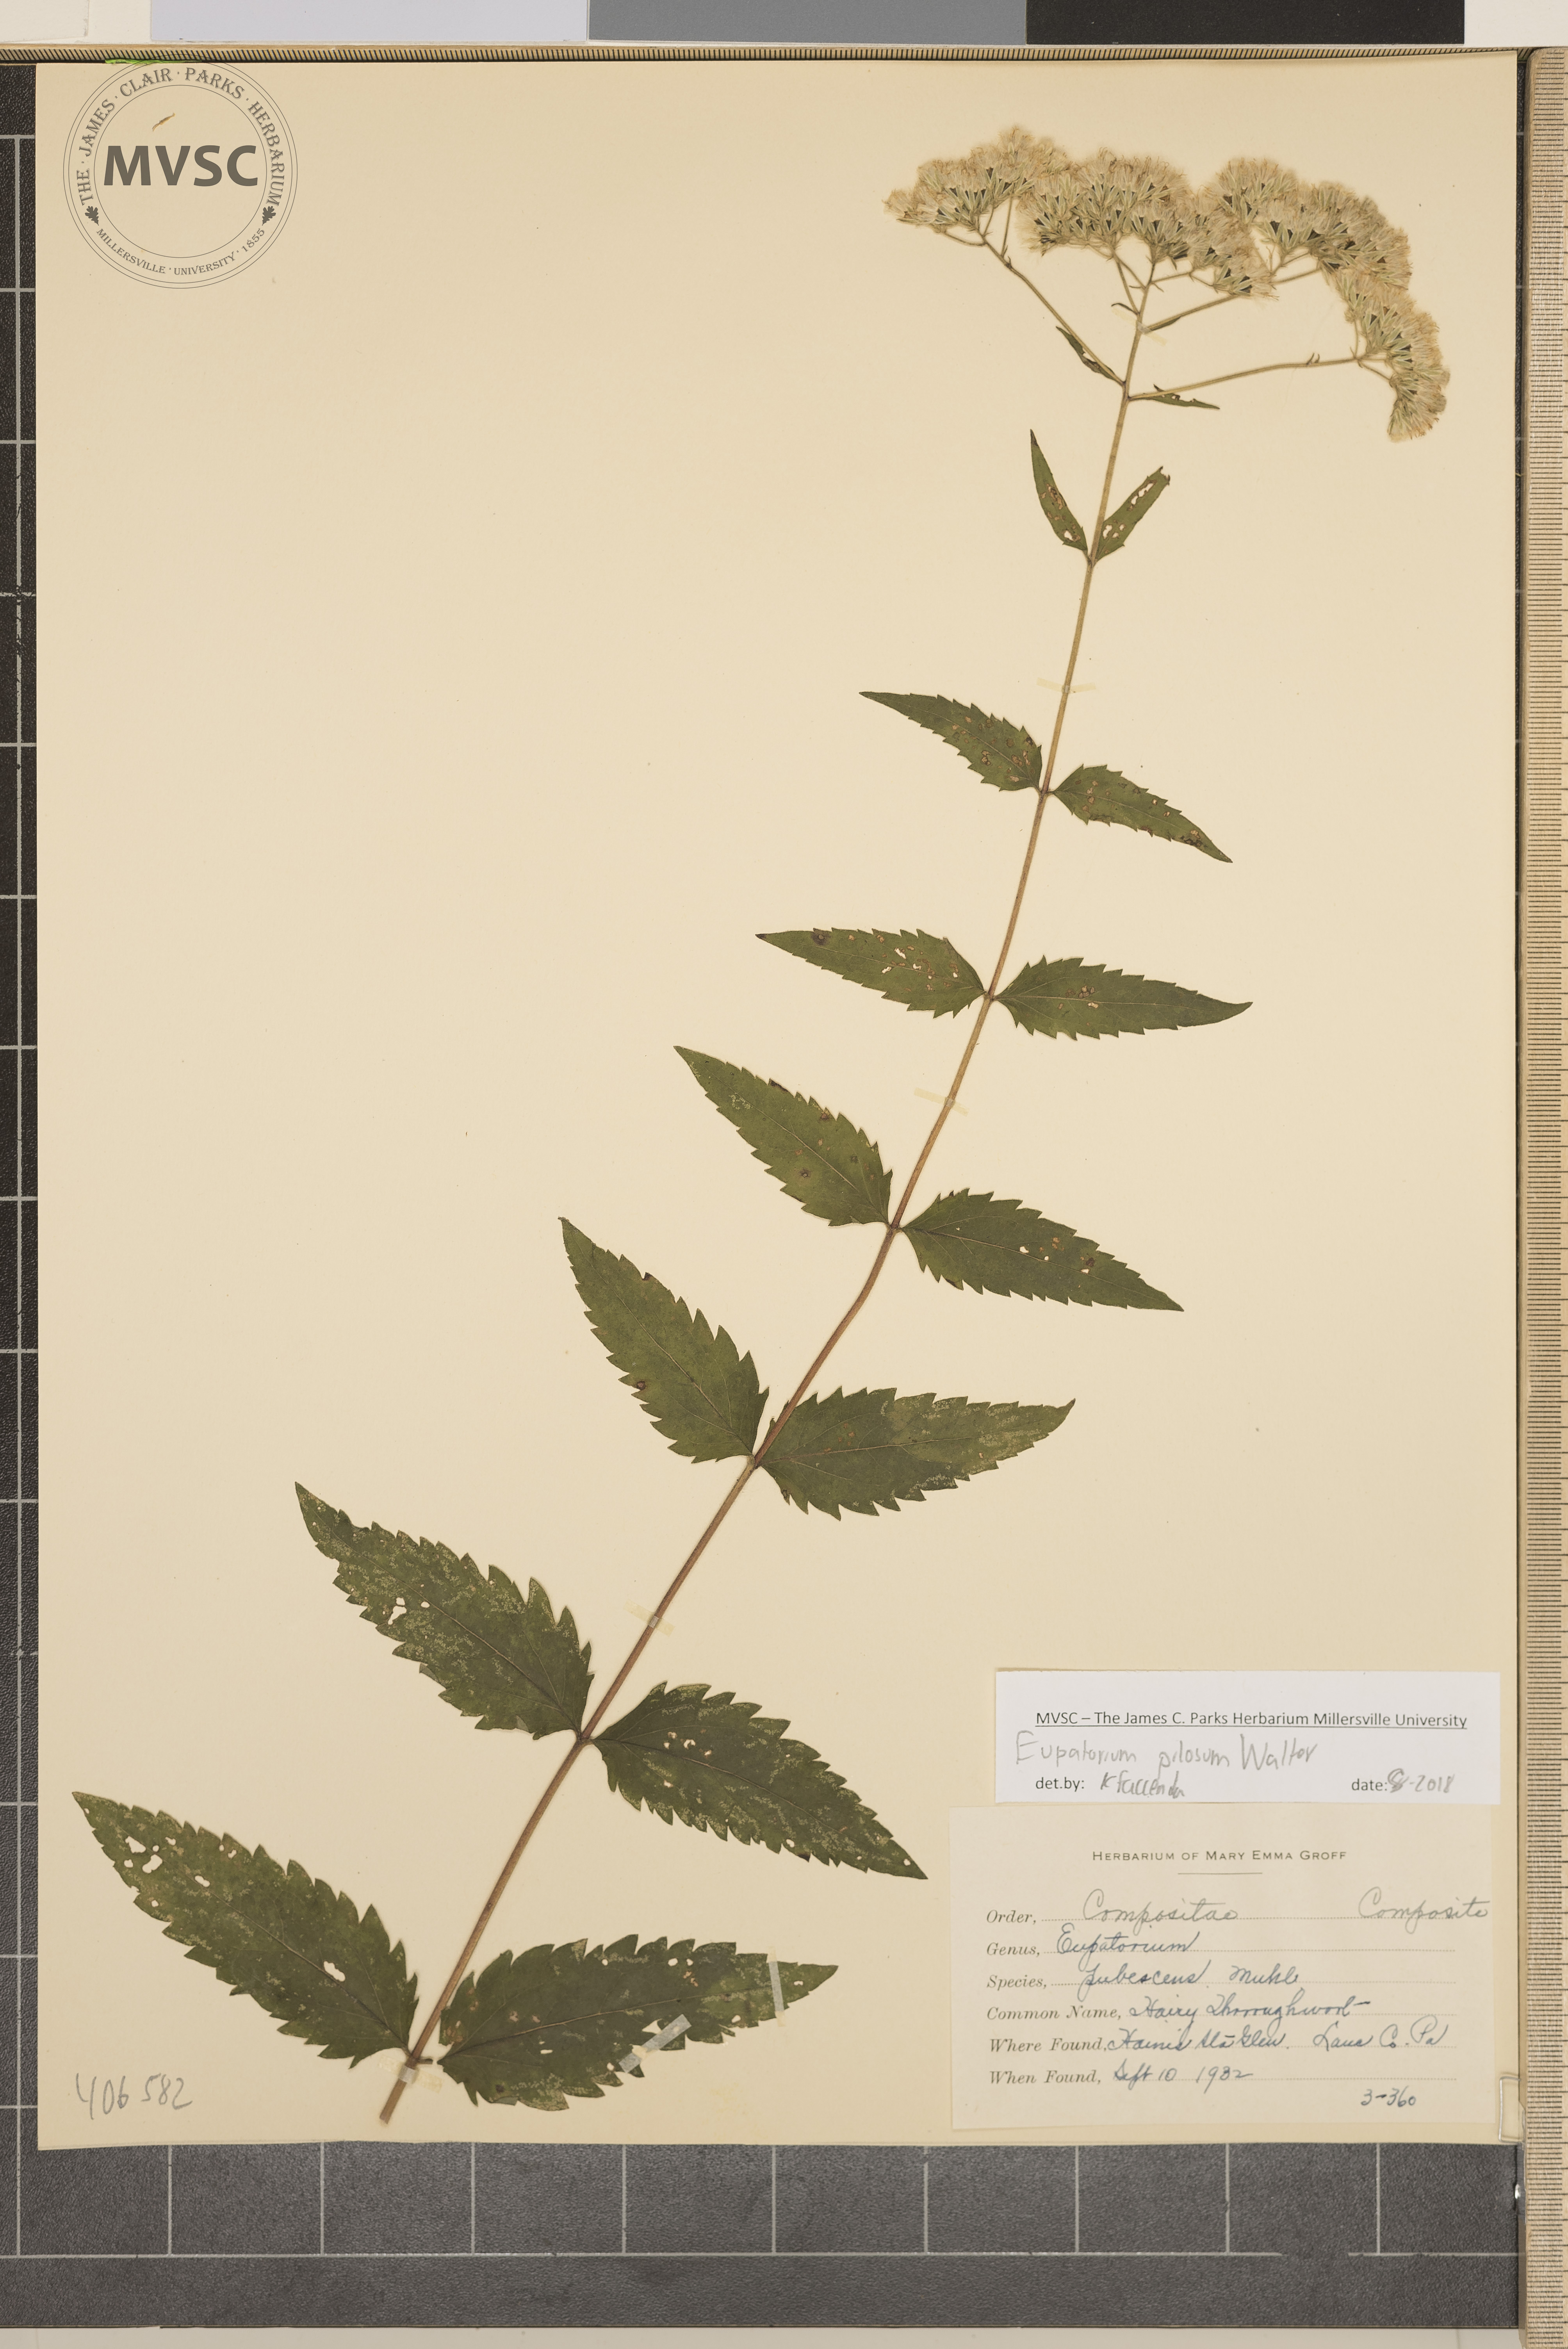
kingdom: Plantae
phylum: Tracheophyta
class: Magnoliopsida
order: Asterales
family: Asteraceae
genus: Eupatorium
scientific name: Eupatorium pilosum
